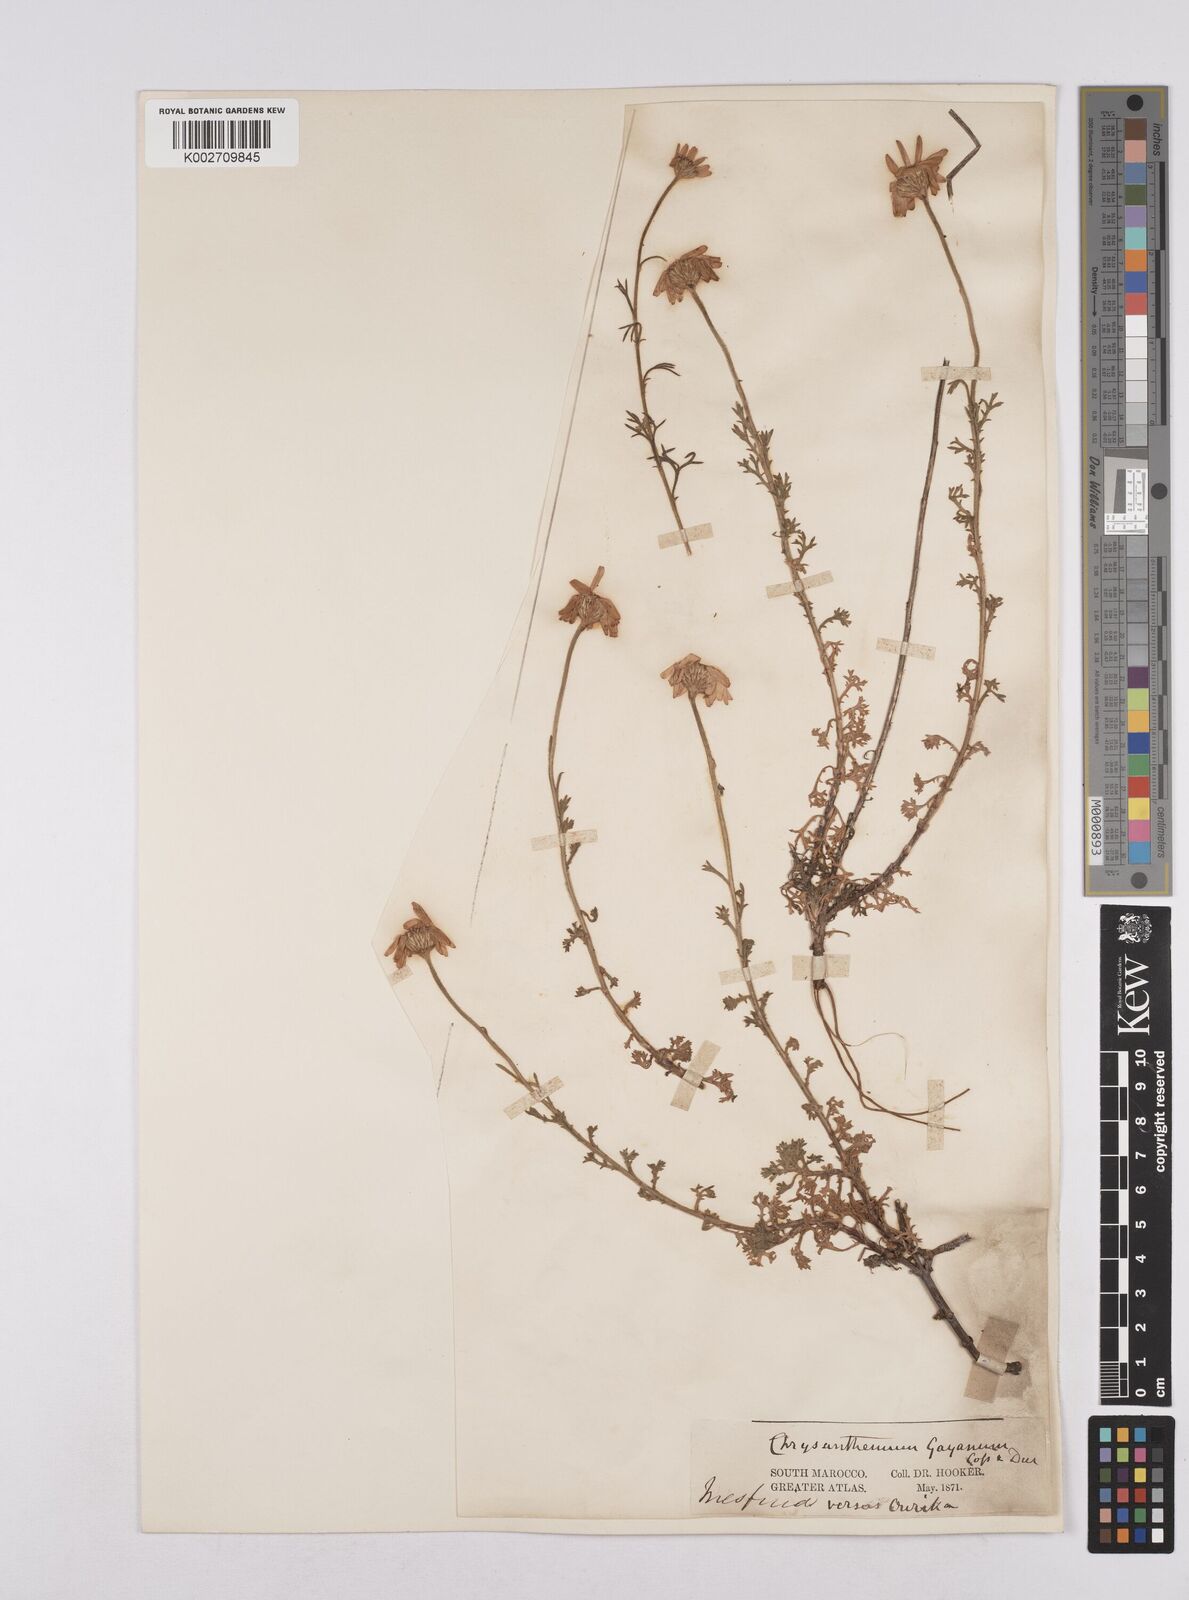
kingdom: Plantae
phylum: Tracheophyta
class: Magnoliopsida
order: Asterales
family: Asteraceae
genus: Rhodanthemum
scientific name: Rhodanthemum gayanum
